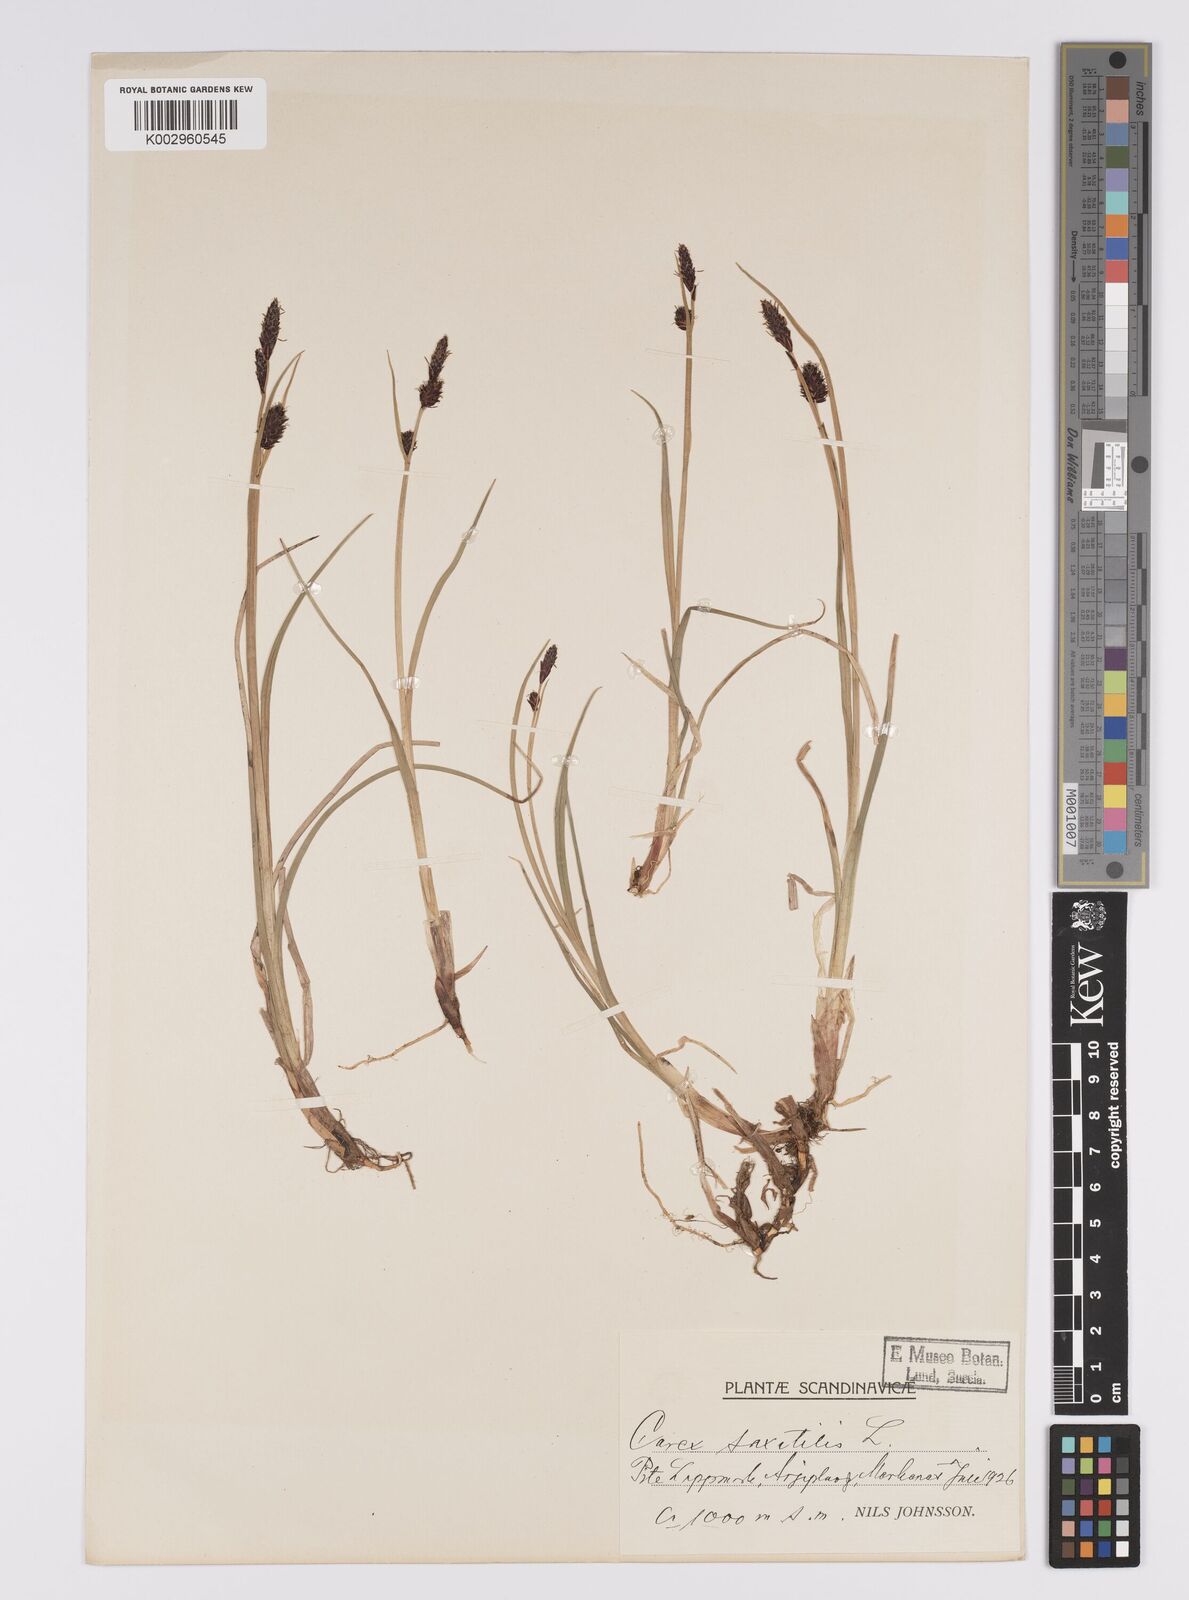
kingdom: Plantae
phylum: Tracheophyta
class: Liliopsida
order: Poales
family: Cyperaceae
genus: Carex
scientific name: Carex saxatilis
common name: Russet sedge
